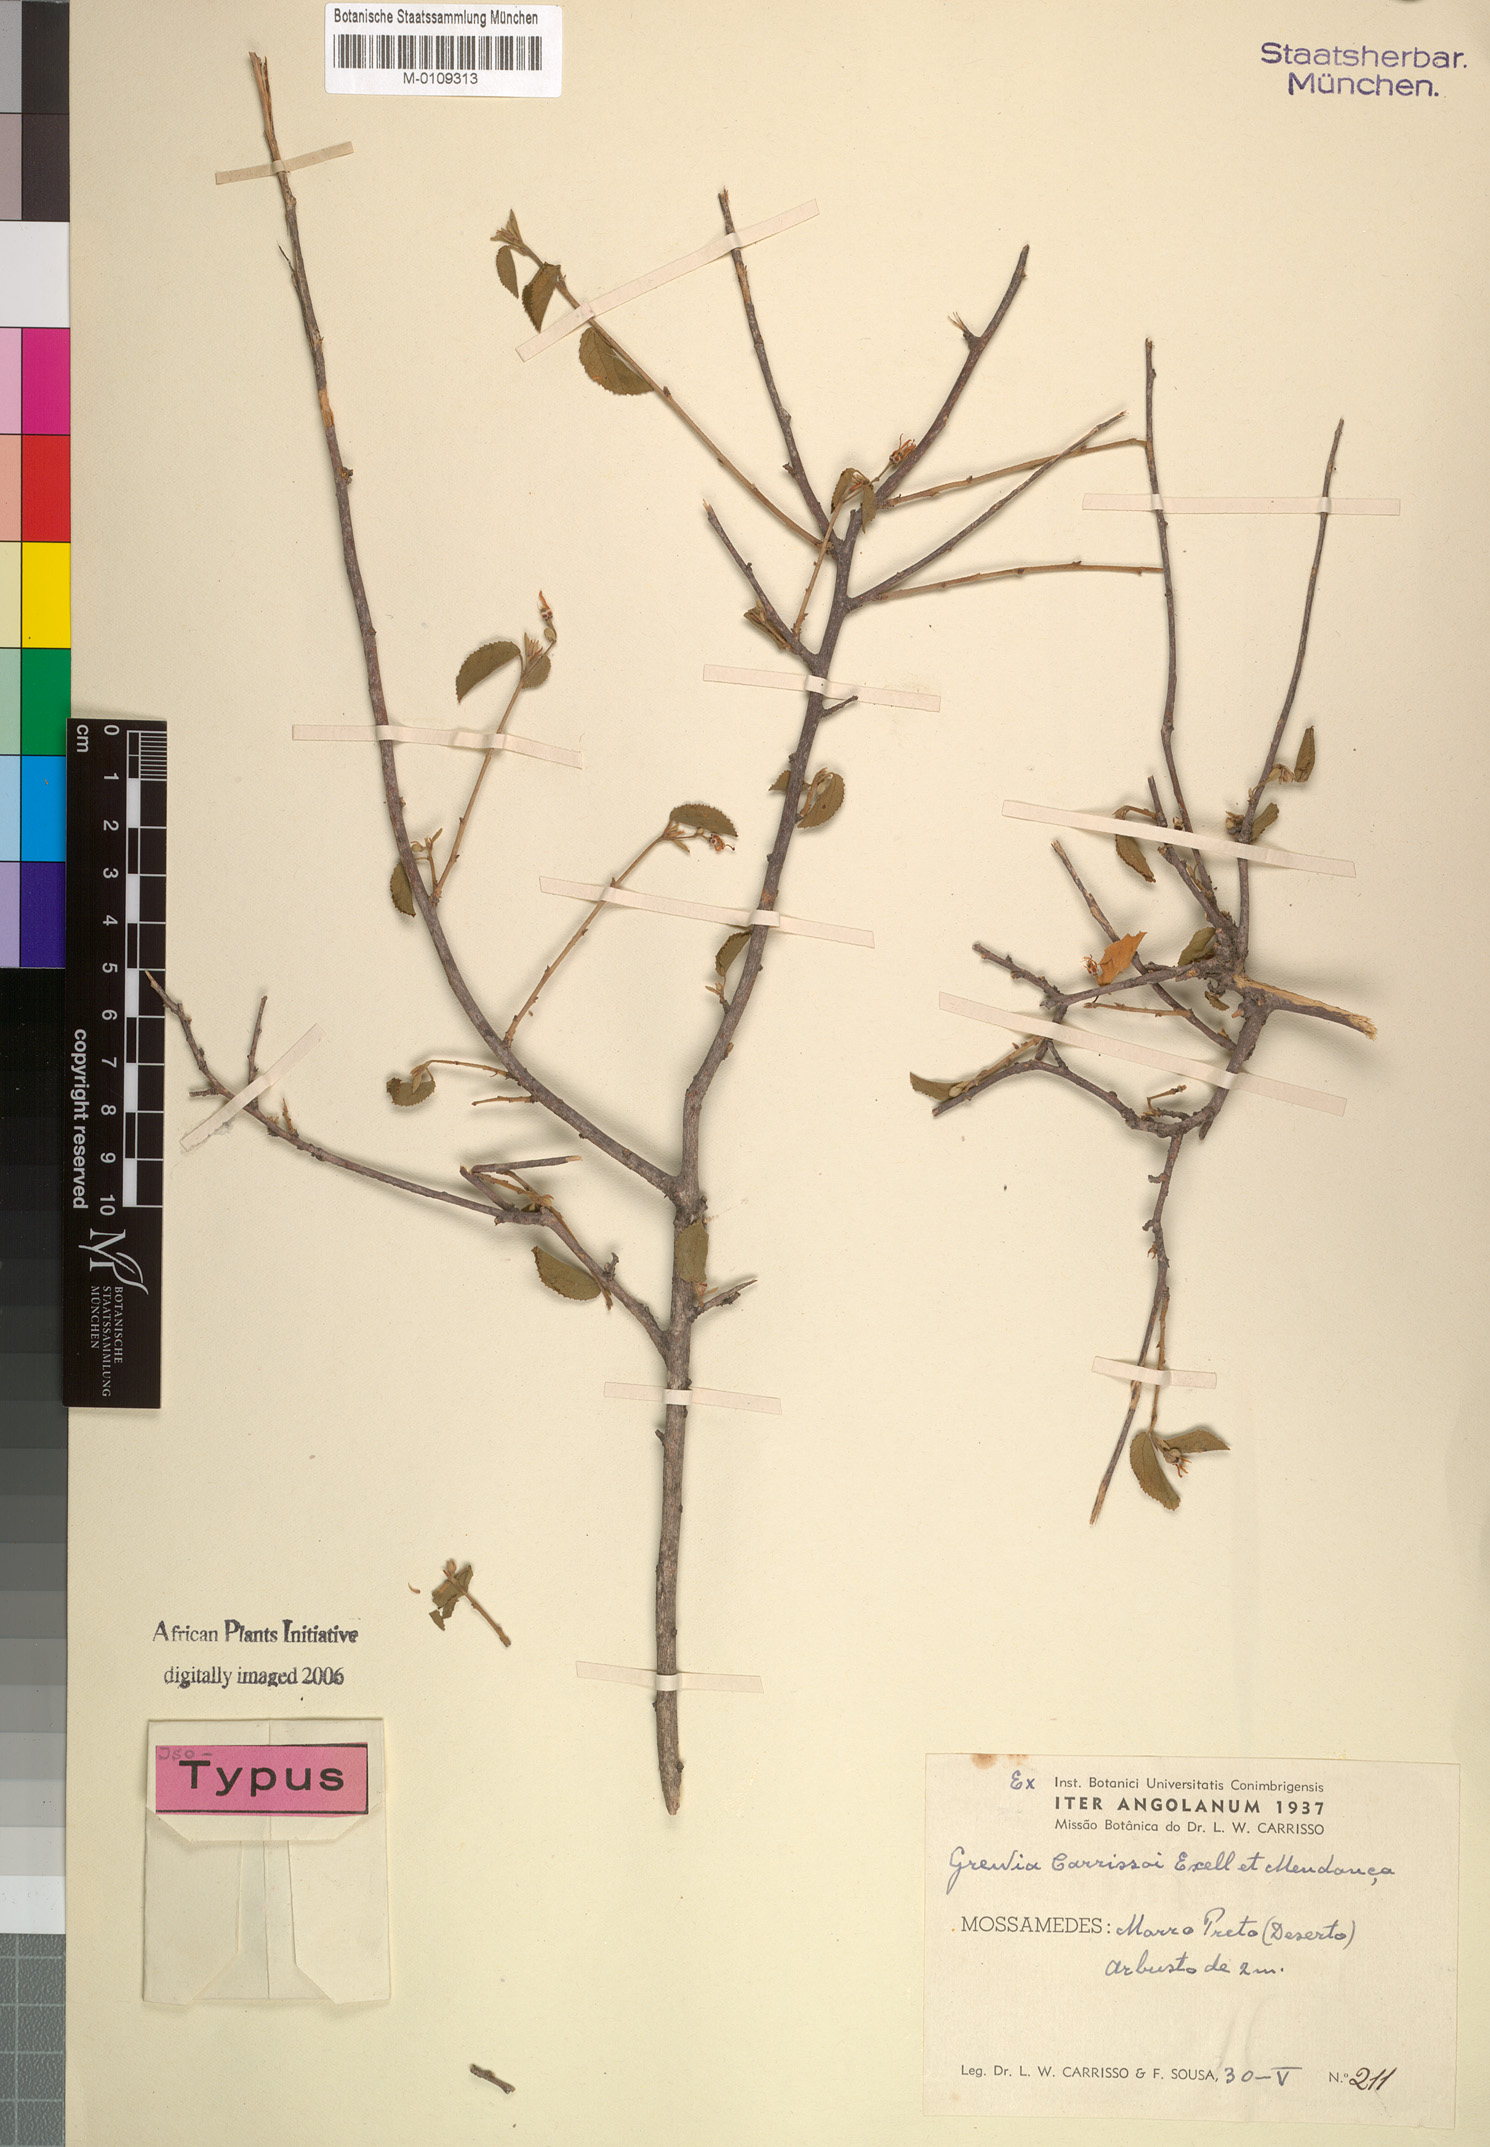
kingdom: Plantae
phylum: Tracheophyta
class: Magnoliopsida
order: Malvales
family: Malvaceae
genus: Grewia
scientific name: Grewia carrissoi
